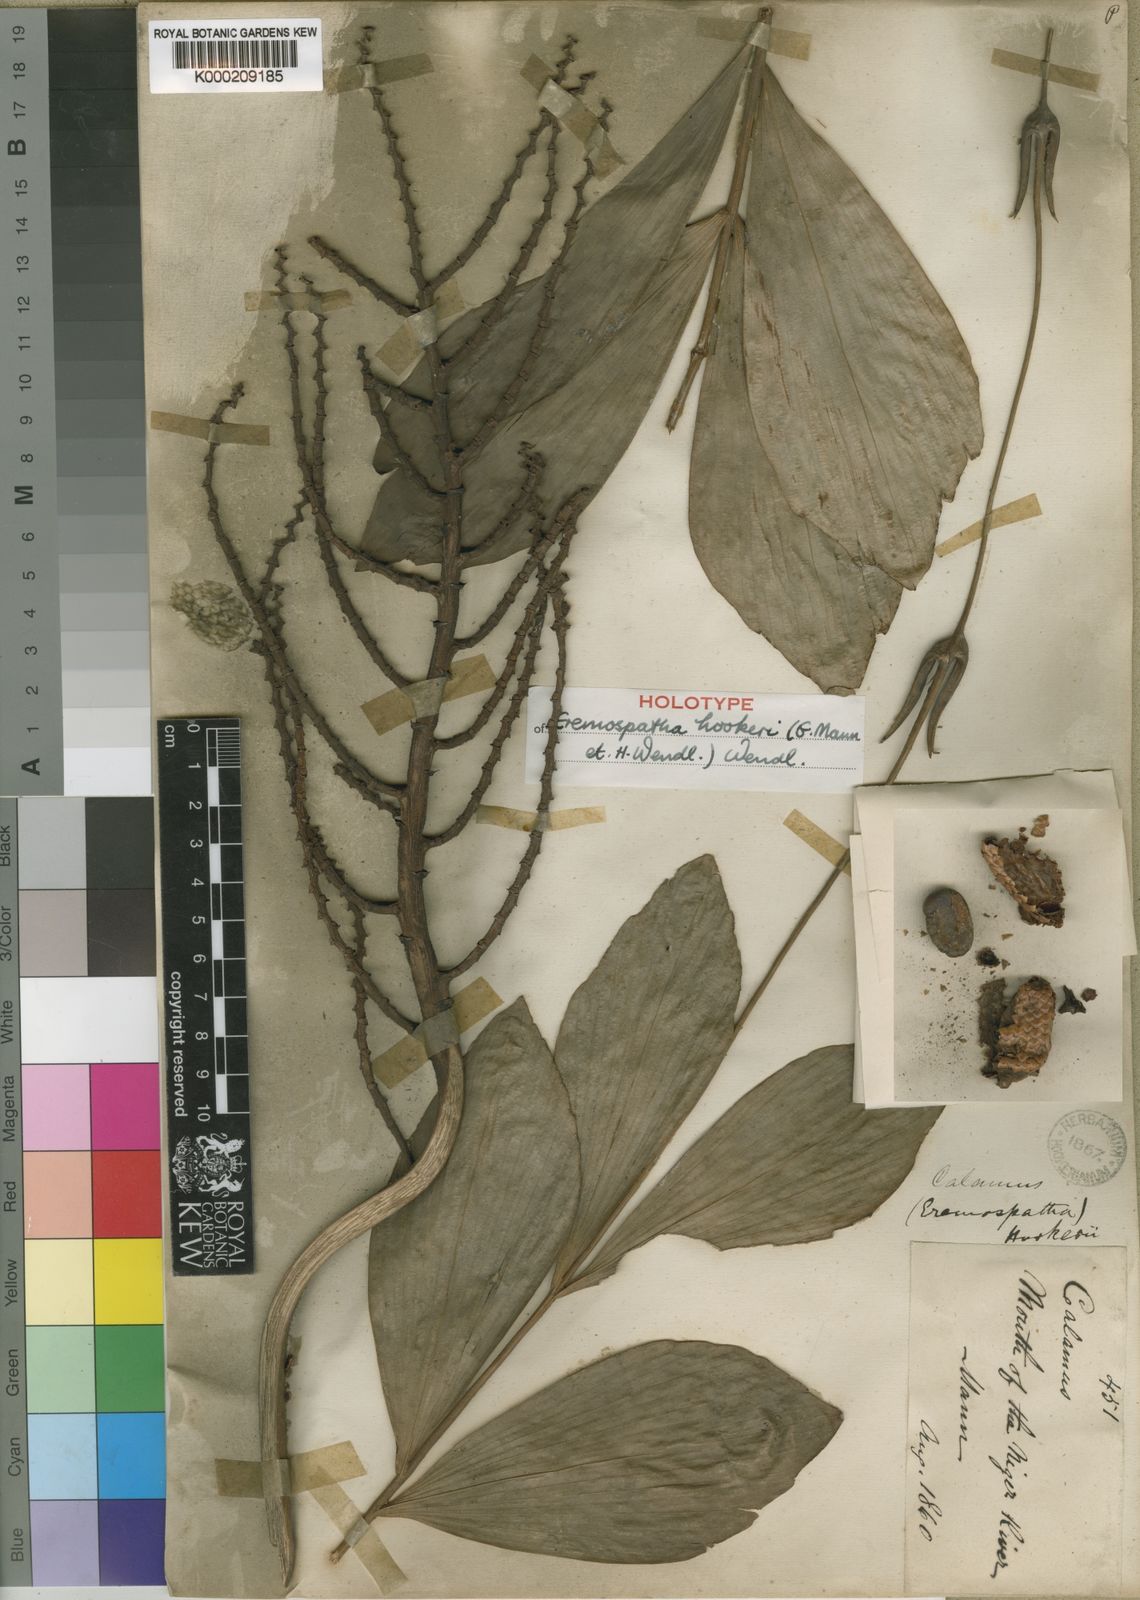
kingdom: Plantae
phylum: Tracheophyta
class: Liliopsida
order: Arecales
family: Arecaceae
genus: Eremospatha
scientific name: Eremospatha hookeri
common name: Rattan
